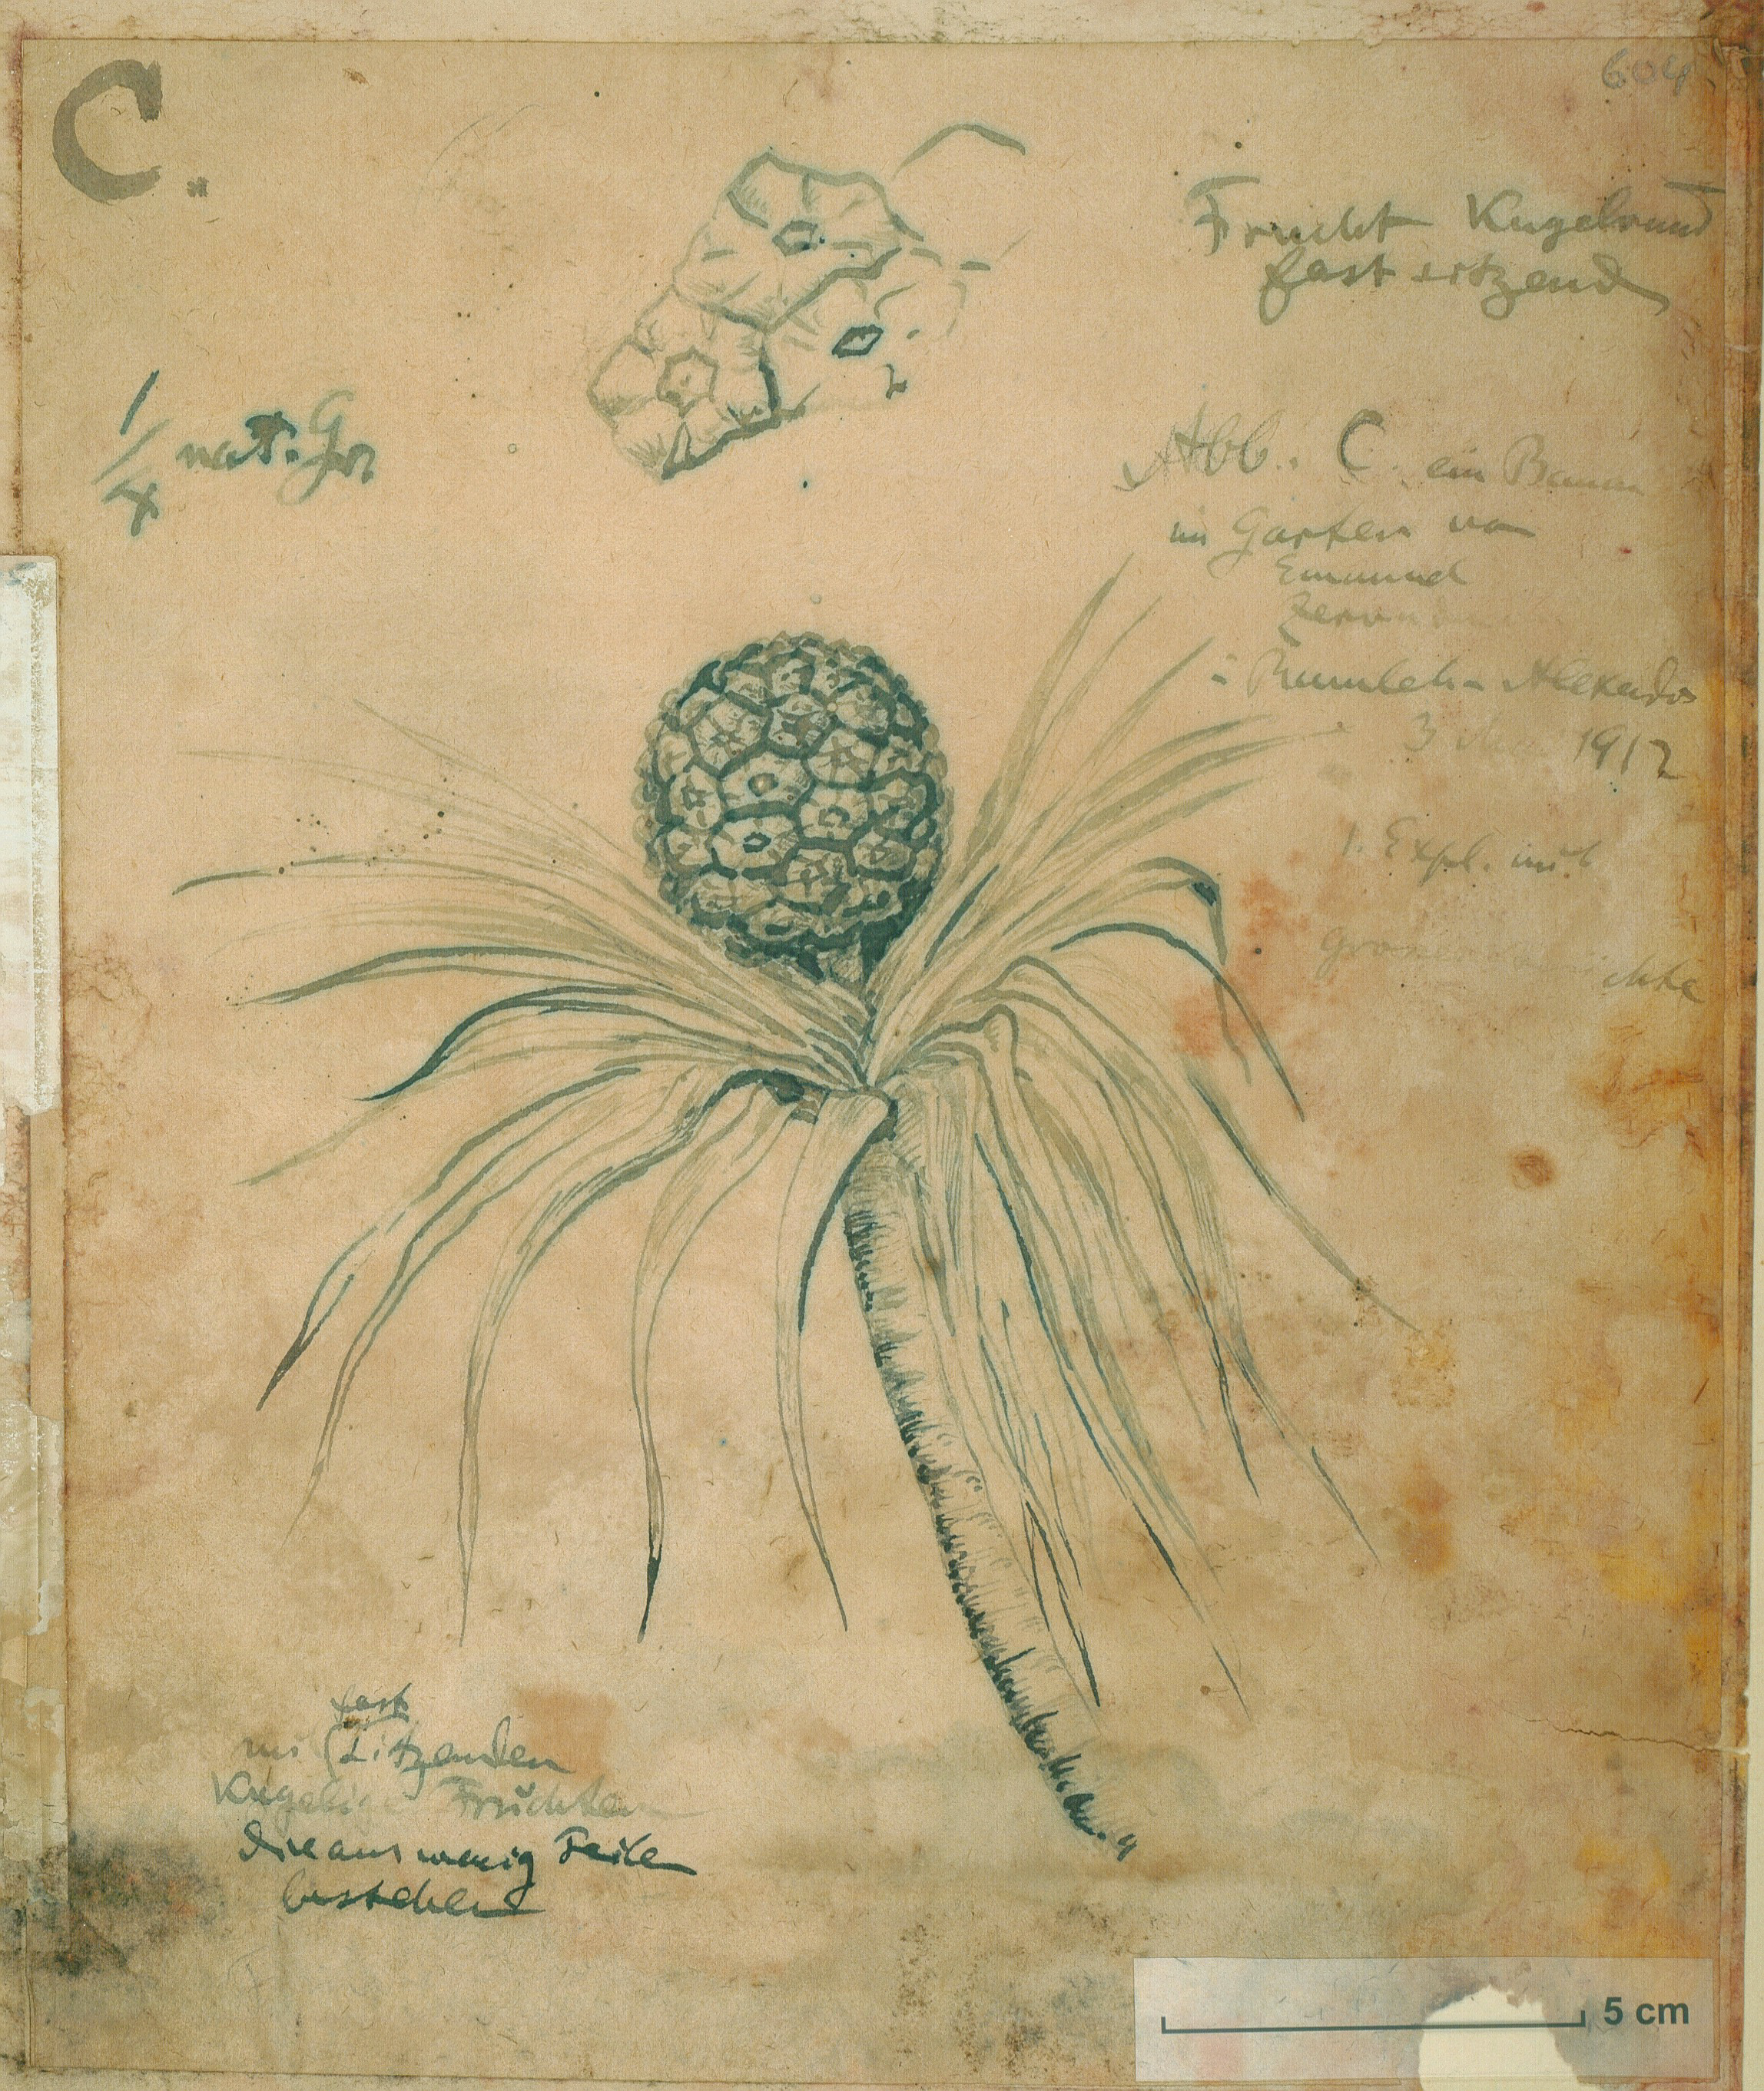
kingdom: Plantae
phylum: Tracheophyta
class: Liliopsida
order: Pandanales
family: Pandanaceae
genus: Pandanus
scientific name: Pandanus tectorius
